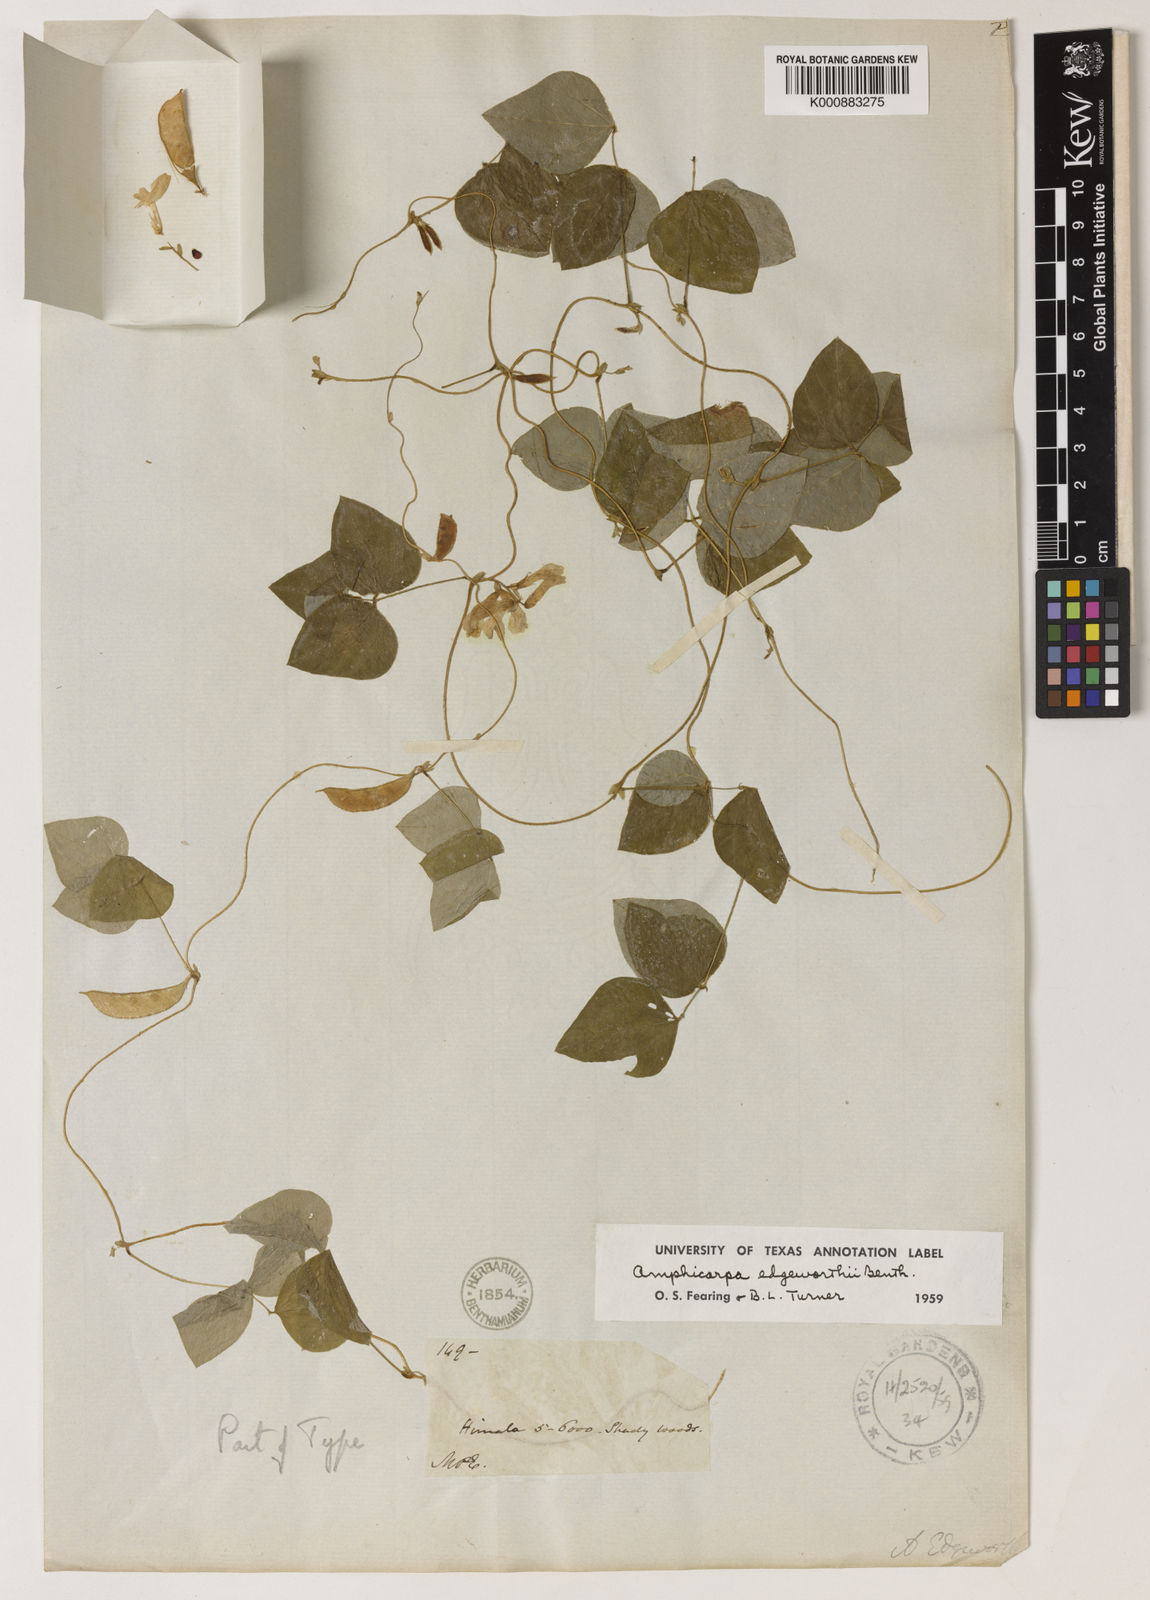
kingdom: Plantae
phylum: Tracheophyta
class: Magnoliopsida
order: Fabales
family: Fabaceae
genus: Amphicarpaea
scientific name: Amphicarpaea edgeworthii
